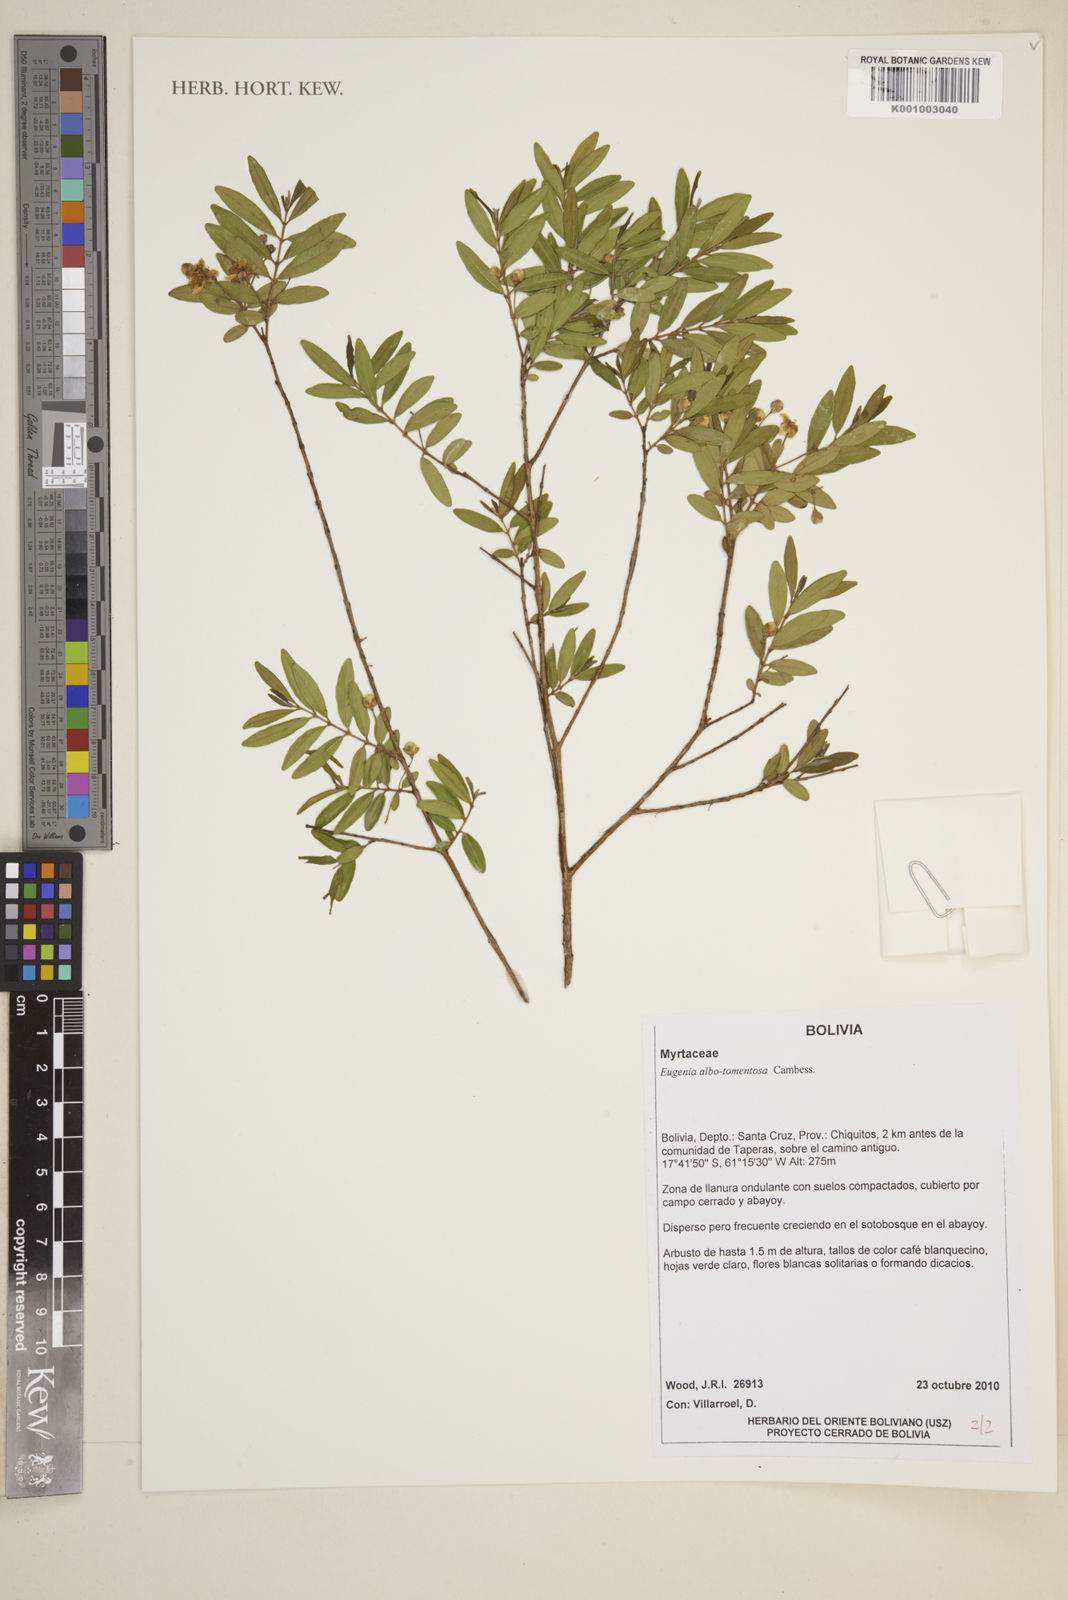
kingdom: Plantae
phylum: Tracheophyta
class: Magnoliopsida
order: Myrtales
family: Myrtaceae
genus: Eugenia
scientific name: Eugenia pyriformis
